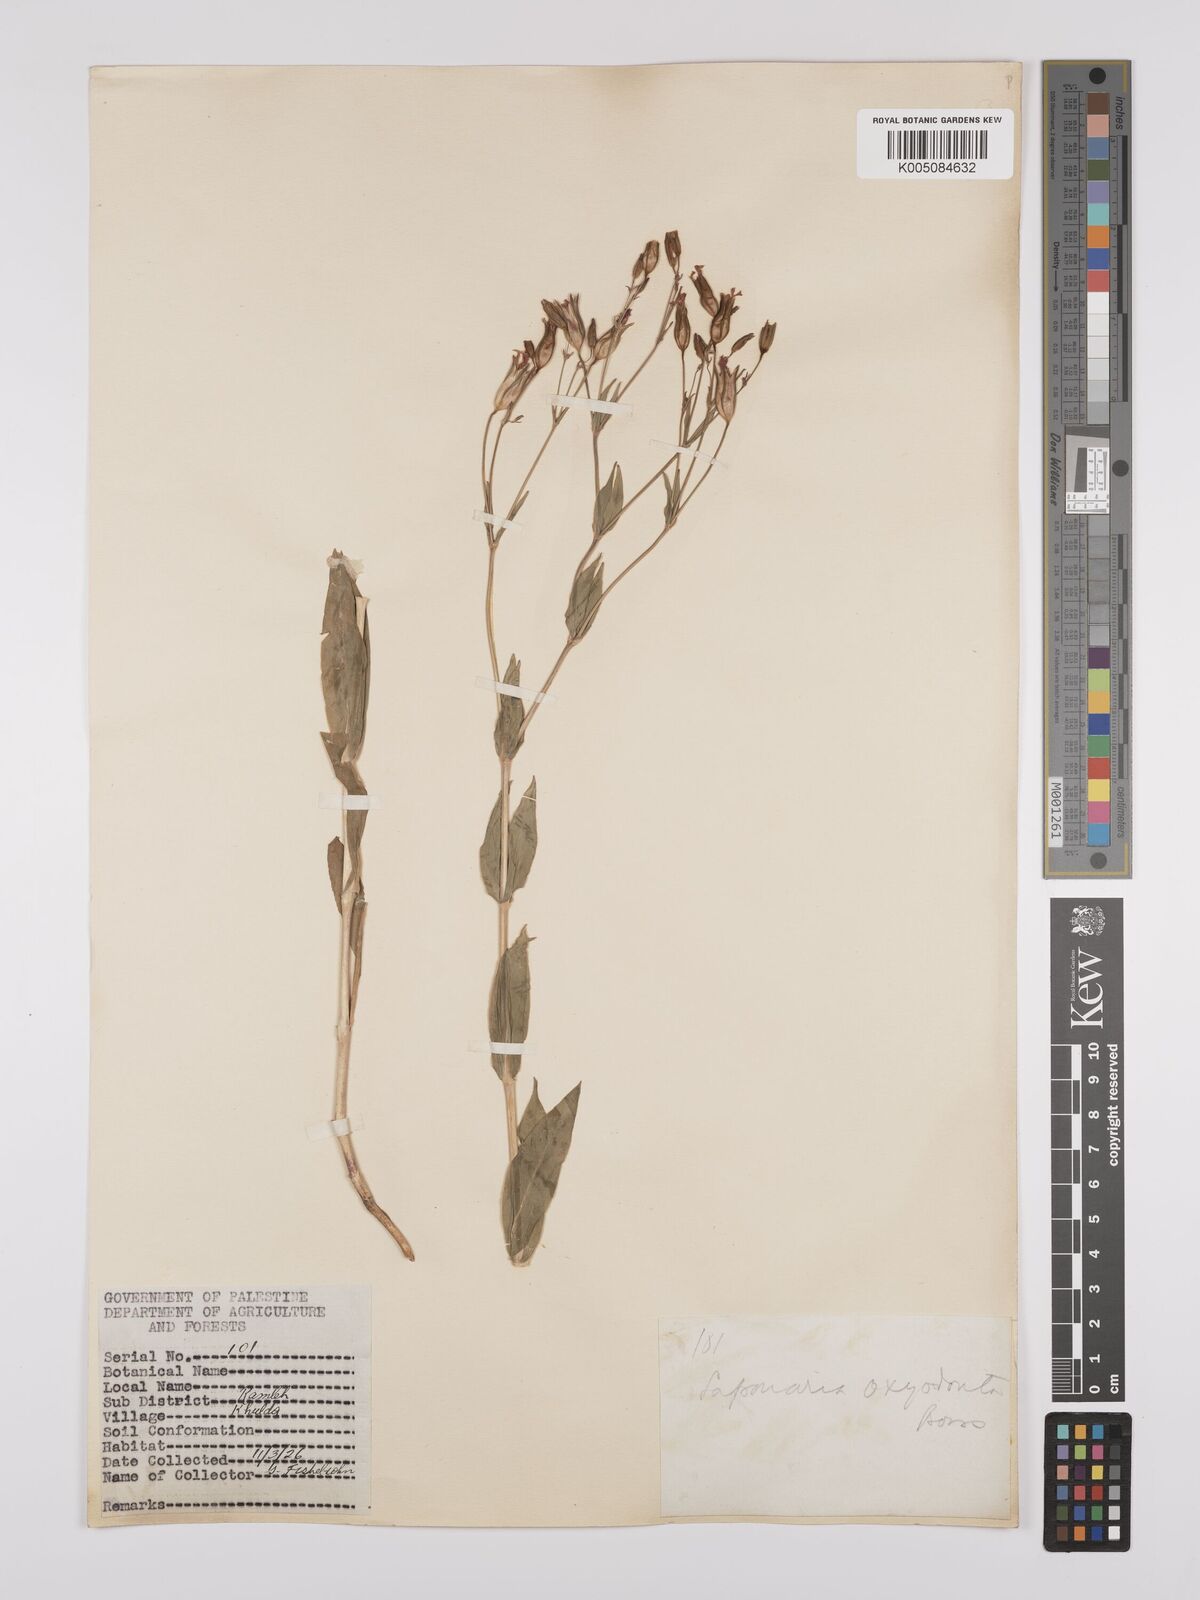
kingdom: Plantae
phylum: Tracheophyta
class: Magnoliopsida
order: Caryophyllales
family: Caryophyllaceae
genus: Gypsophila
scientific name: Gypsophila vaccaria
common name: Cow soapwort
